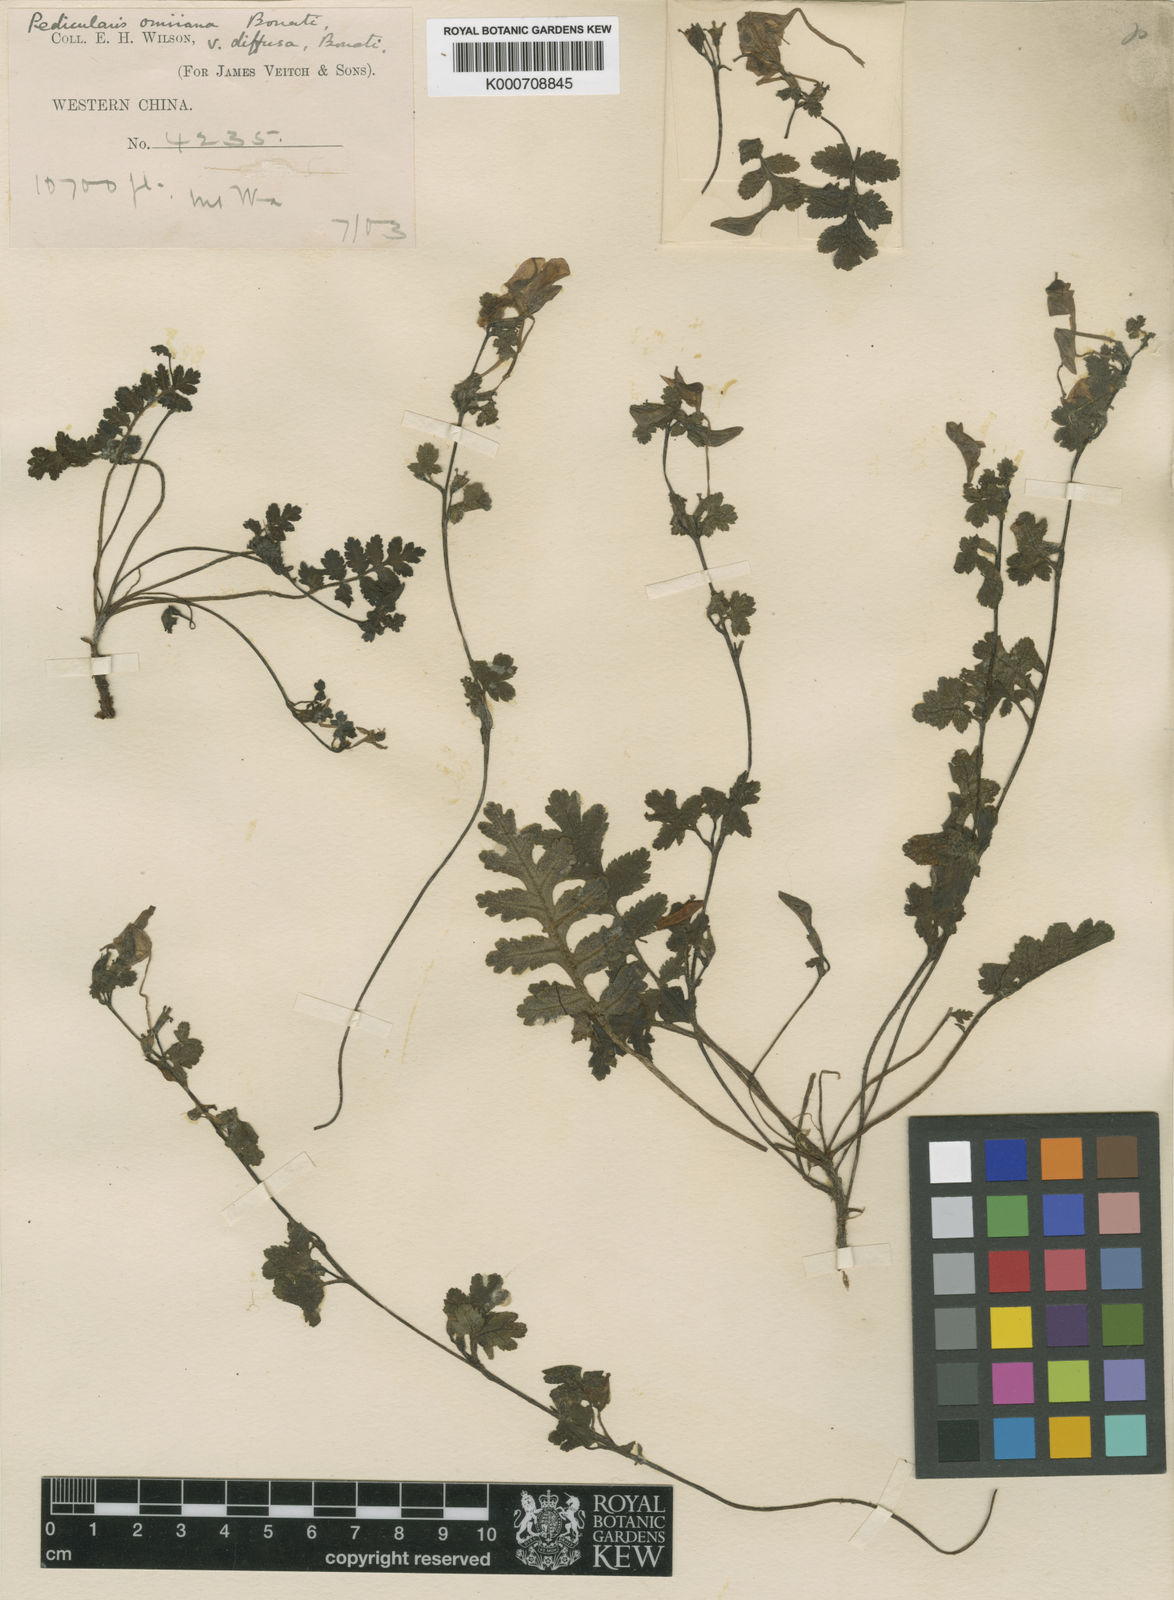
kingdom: Plantae
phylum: Tracheophyta
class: Magnoliopsida
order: Lamiales
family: Orobanchaceae
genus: Pedicularis
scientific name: Pedicularis omiiana
